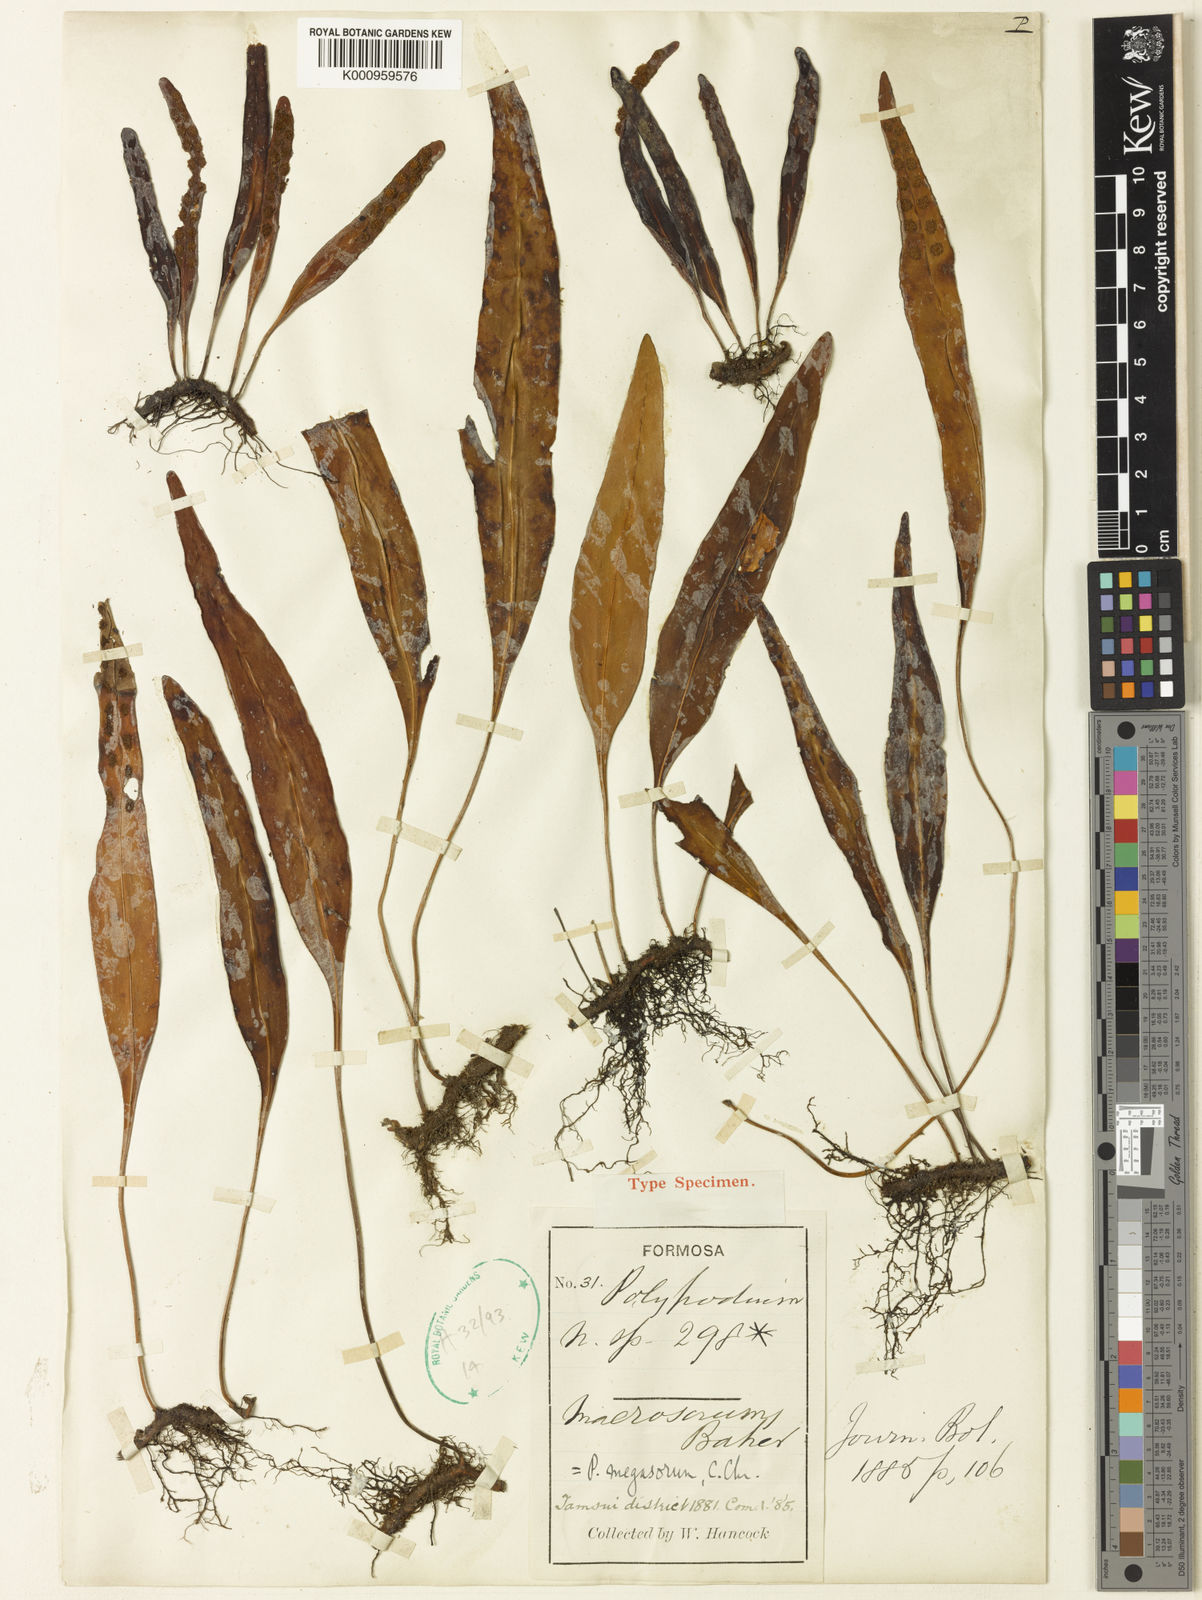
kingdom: Plantae
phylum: Tracheophyta
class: Polypodiopsida
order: Polypodiales
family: Polypodiaceae
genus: Lepisorus
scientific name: Lepisorus megasorus
